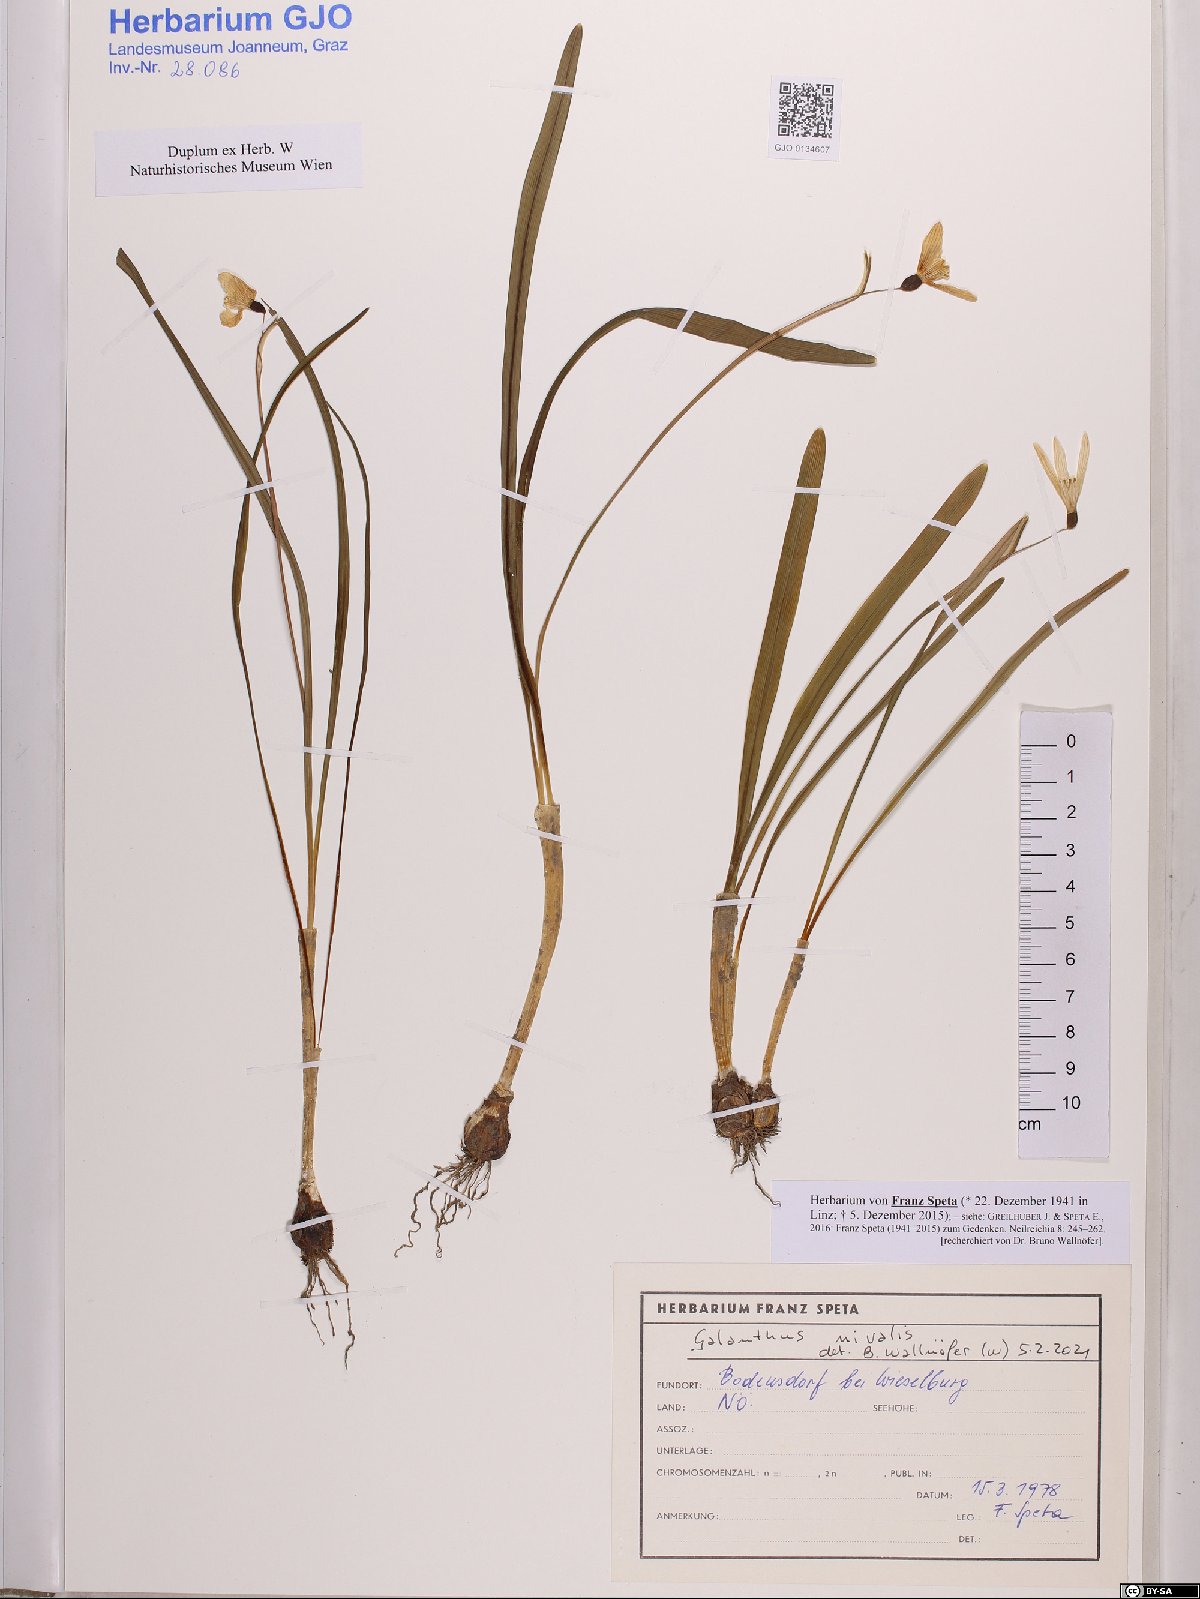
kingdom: Plantae
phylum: Tracheophyta
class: Liliopsida
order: Asparagales
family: Amaryllidaceae
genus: Galanthus
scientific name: Galanthus nivalis
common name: Snowdrop
